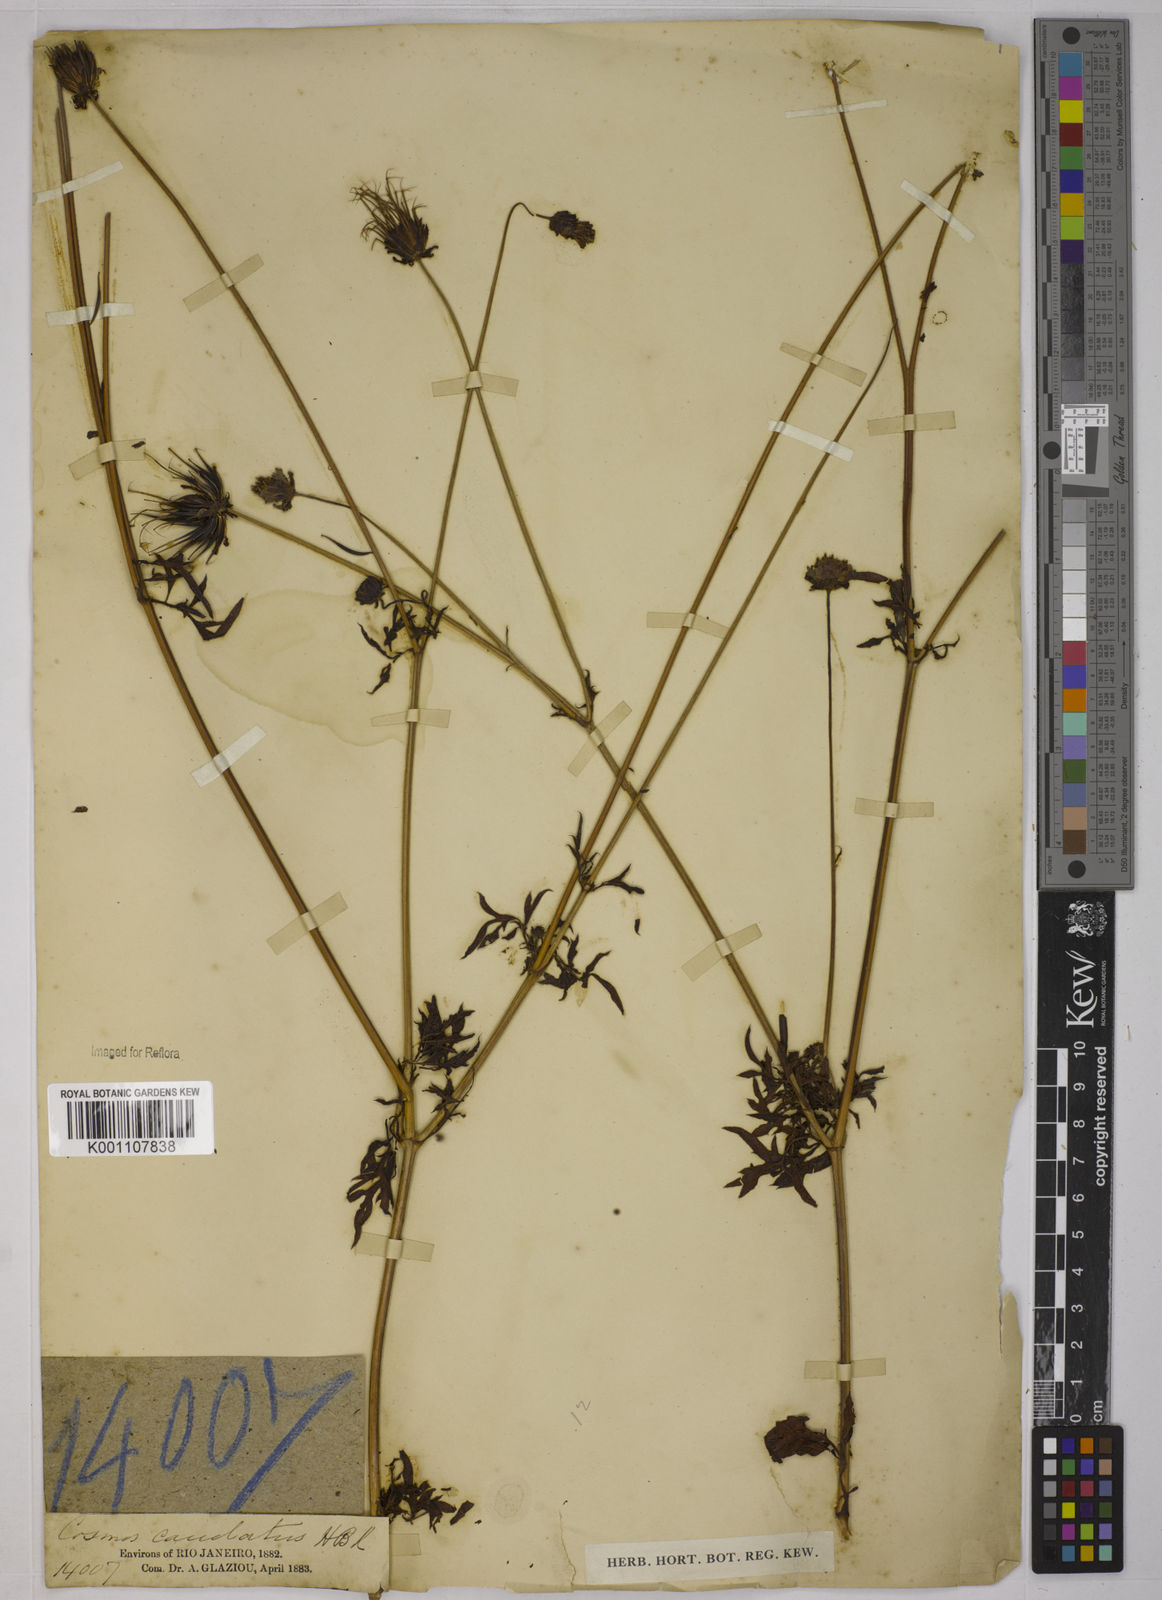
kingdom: Plantae
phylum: Tracheophyta
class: Magnoliopsida
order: Asterales
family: Asteraceae
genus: Cosmos
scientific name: Cosmos caudatus
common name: Wild cosmos
